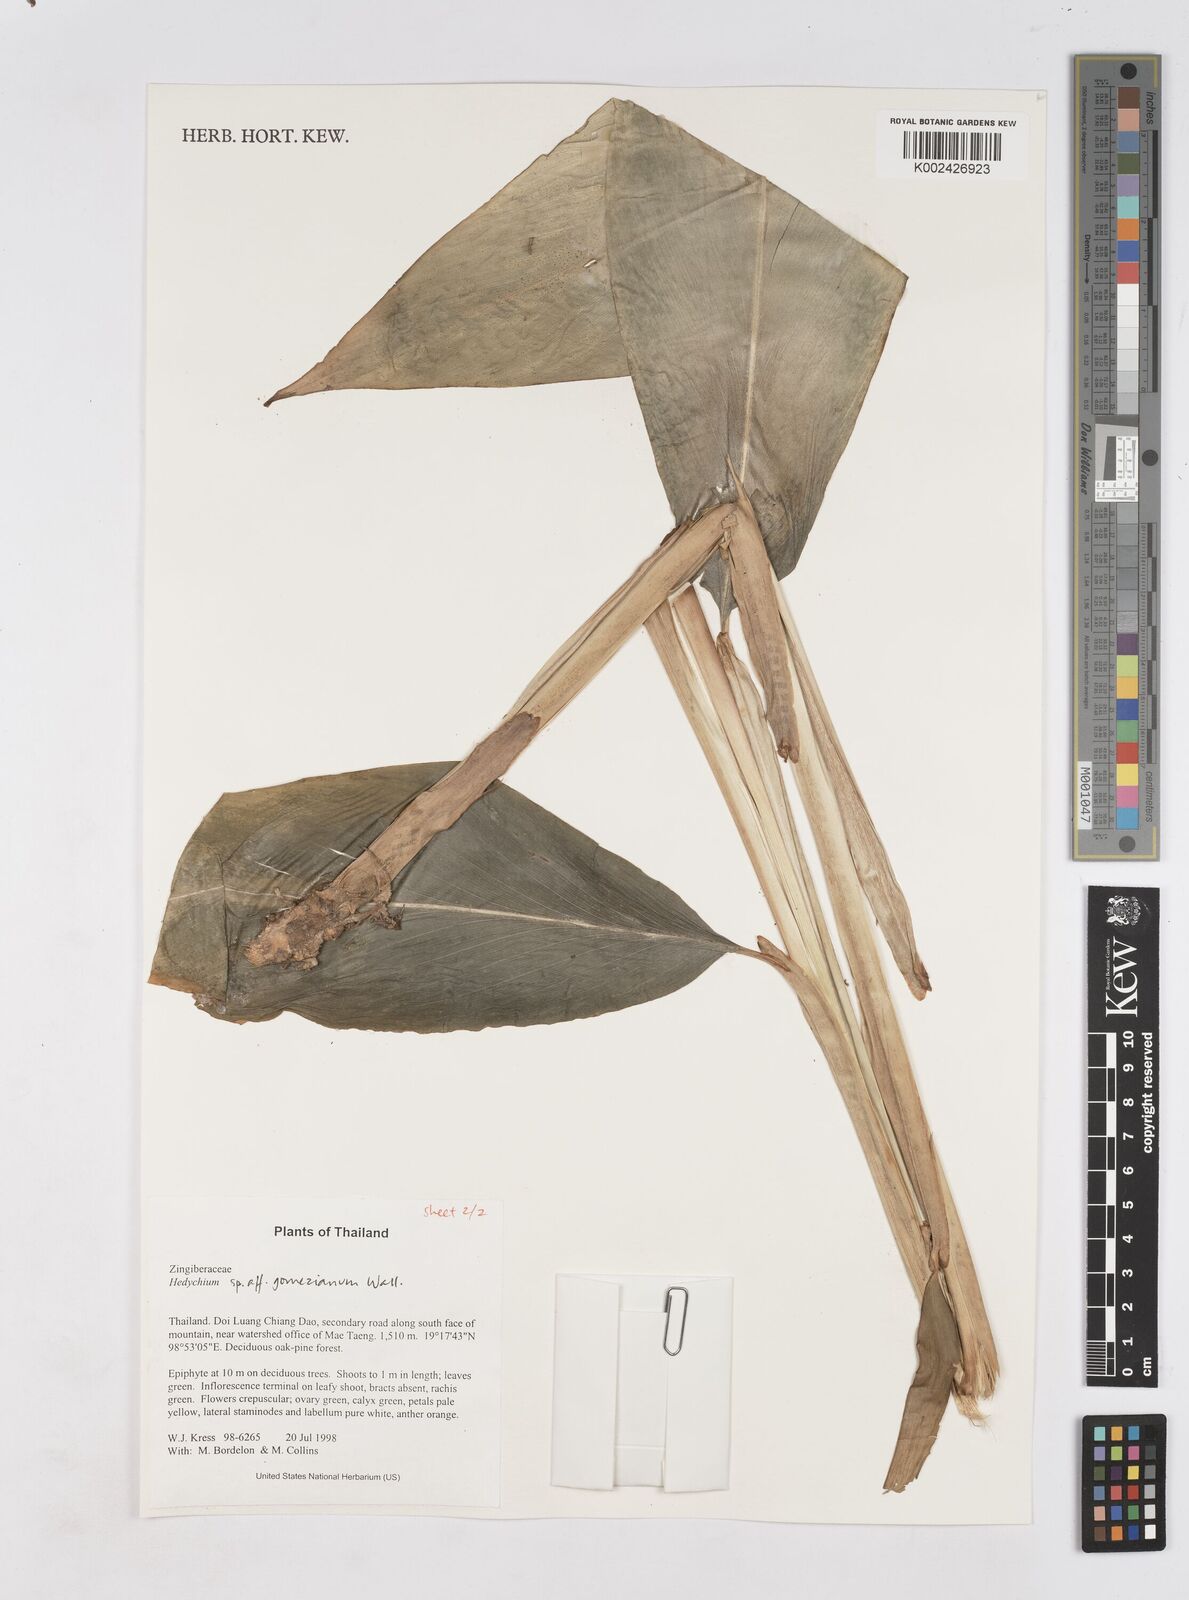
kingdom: Plantae
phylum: Tracheophyta
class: Liliopsida
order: Zingiberales
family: Zingiberaceae
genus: Hedychium
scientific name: Hedychium gomezianum
